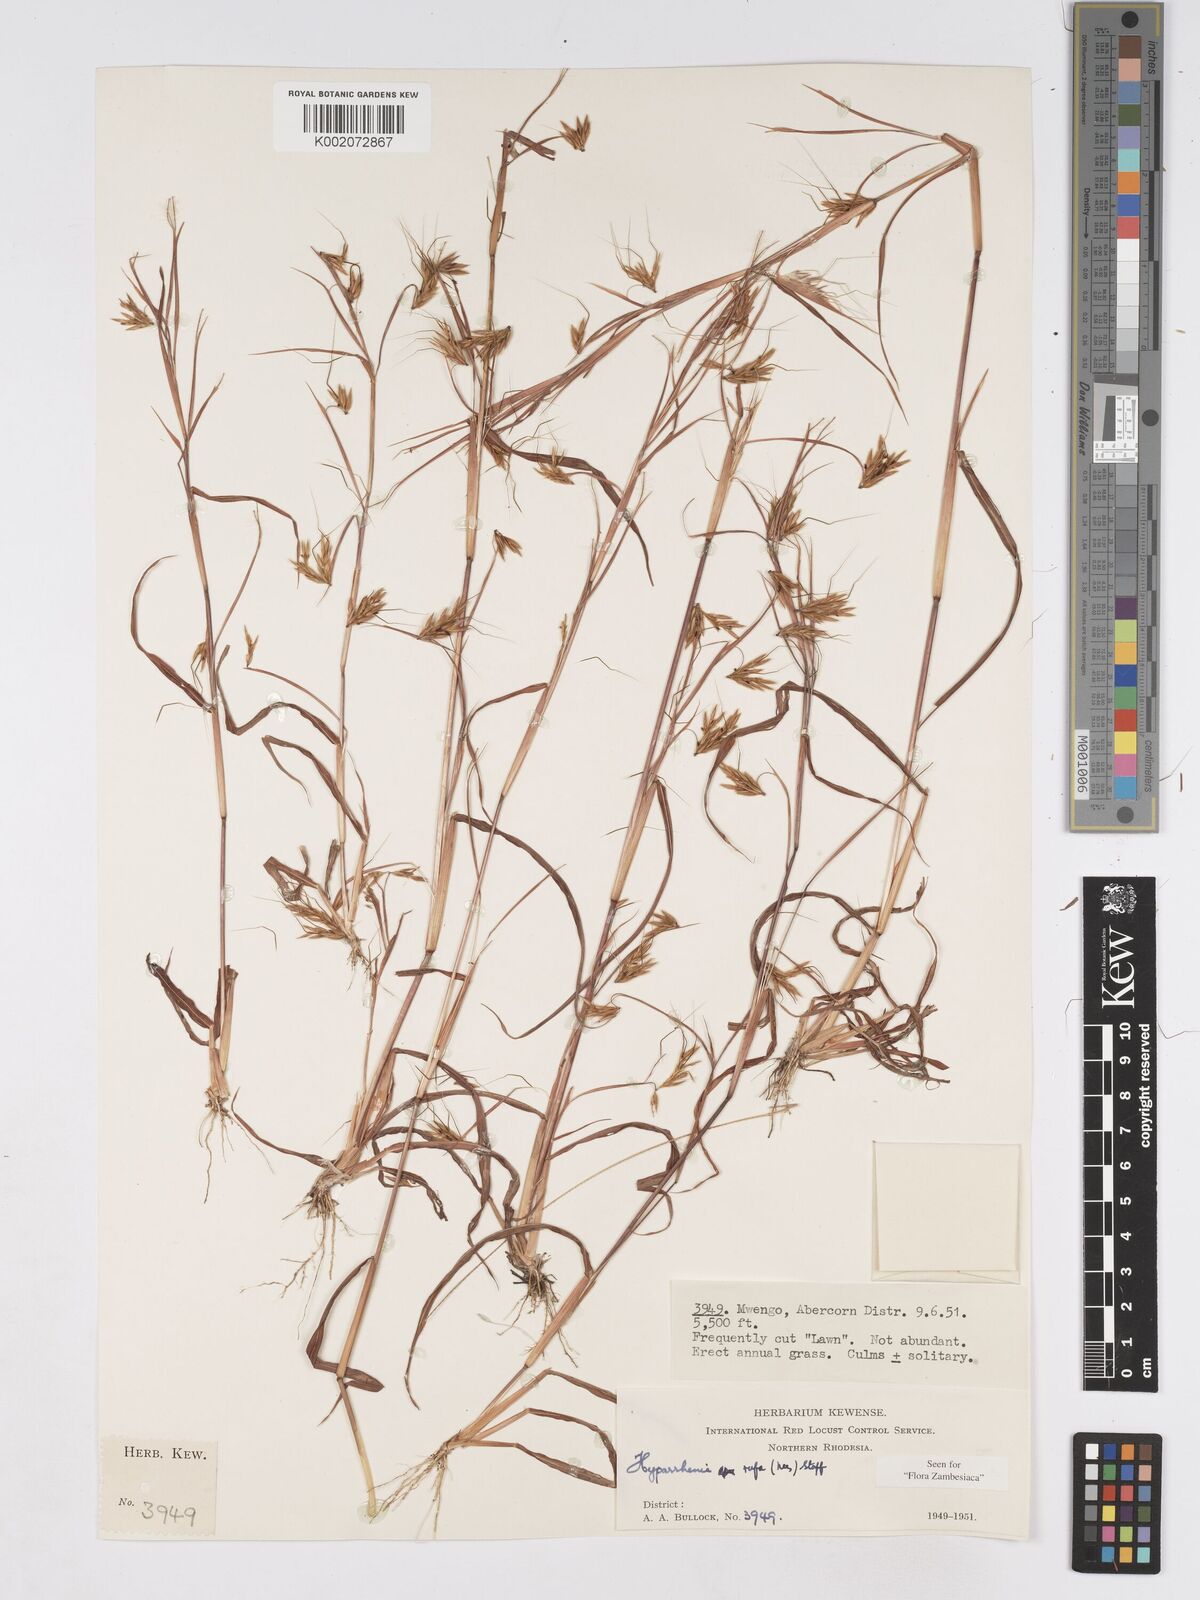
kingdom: Plantae
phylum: Tracheophyta
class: Liliopsida
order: Poales
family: Poaceae
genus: Hyparrhenia
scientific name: Hyparrhenia rufa
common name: Jaraguagrass
